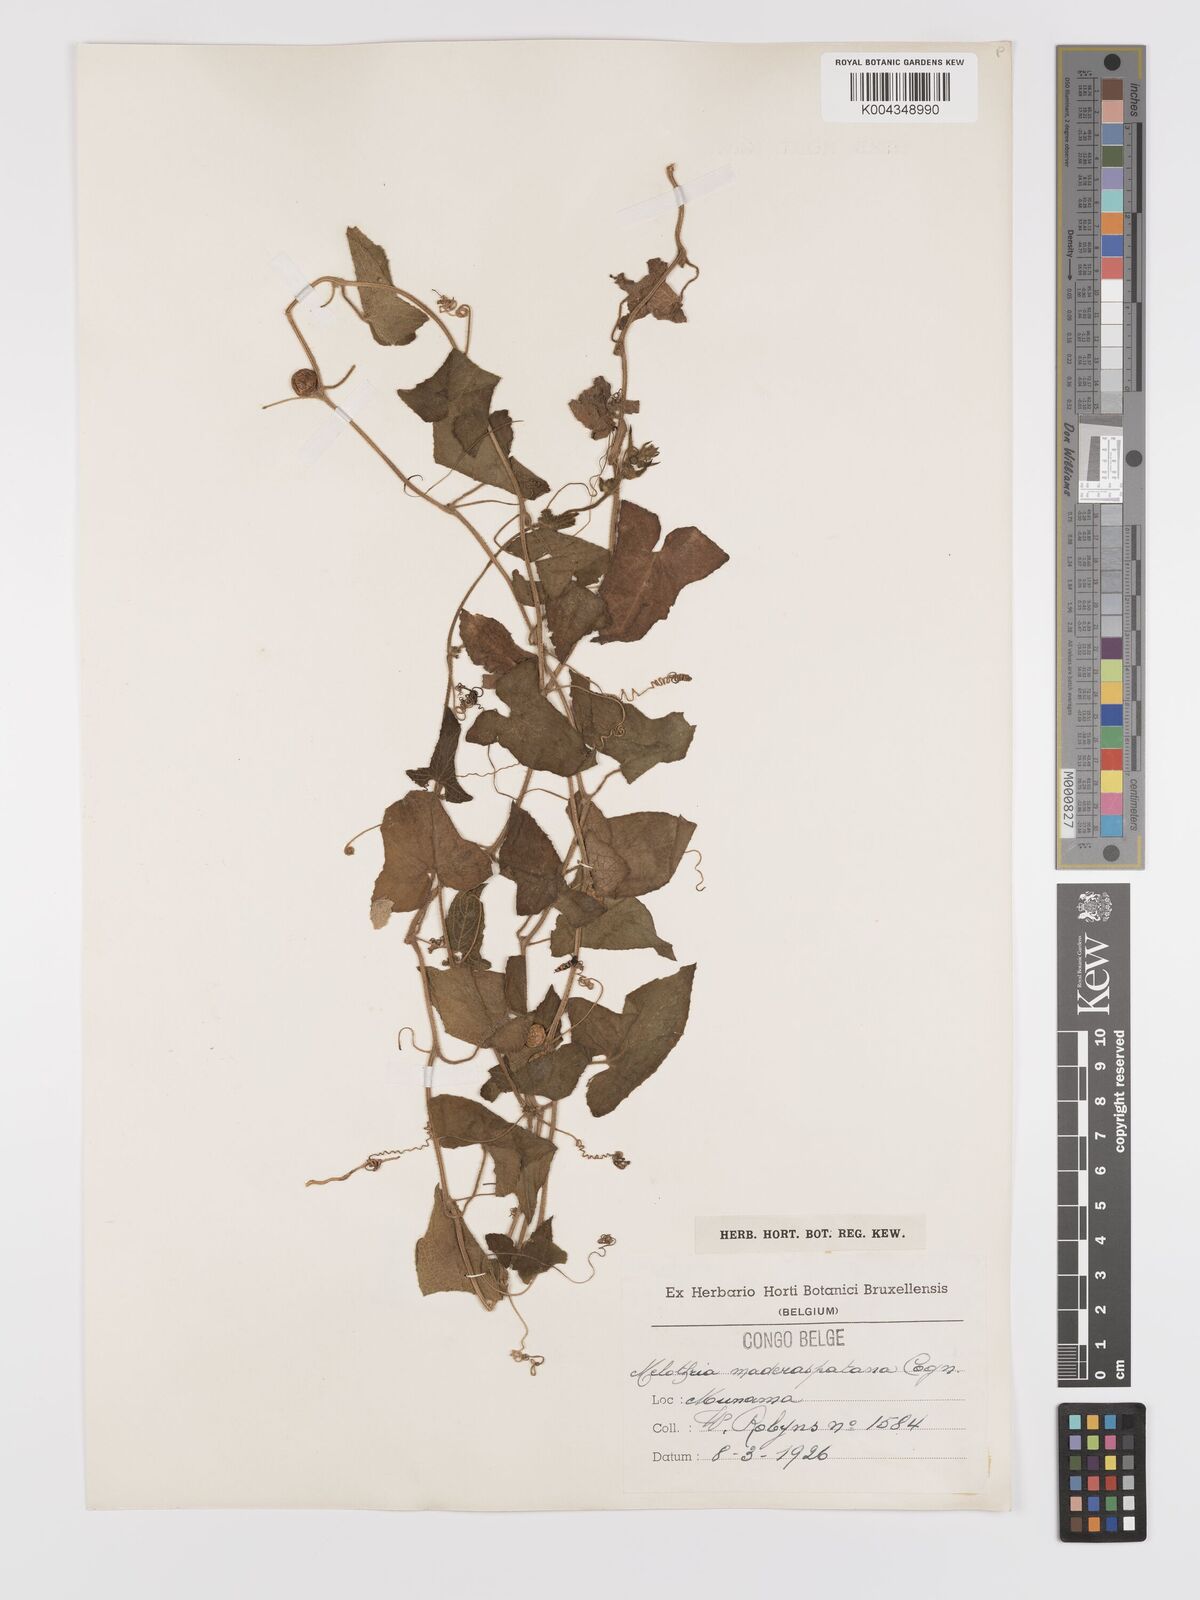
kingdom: Plantae
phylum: Tracheophyta
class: Magnoliopsida
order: Cucurbitales
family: Cucurbitaceae
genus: Cucumis
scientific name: Cucumis maderaspatanus
